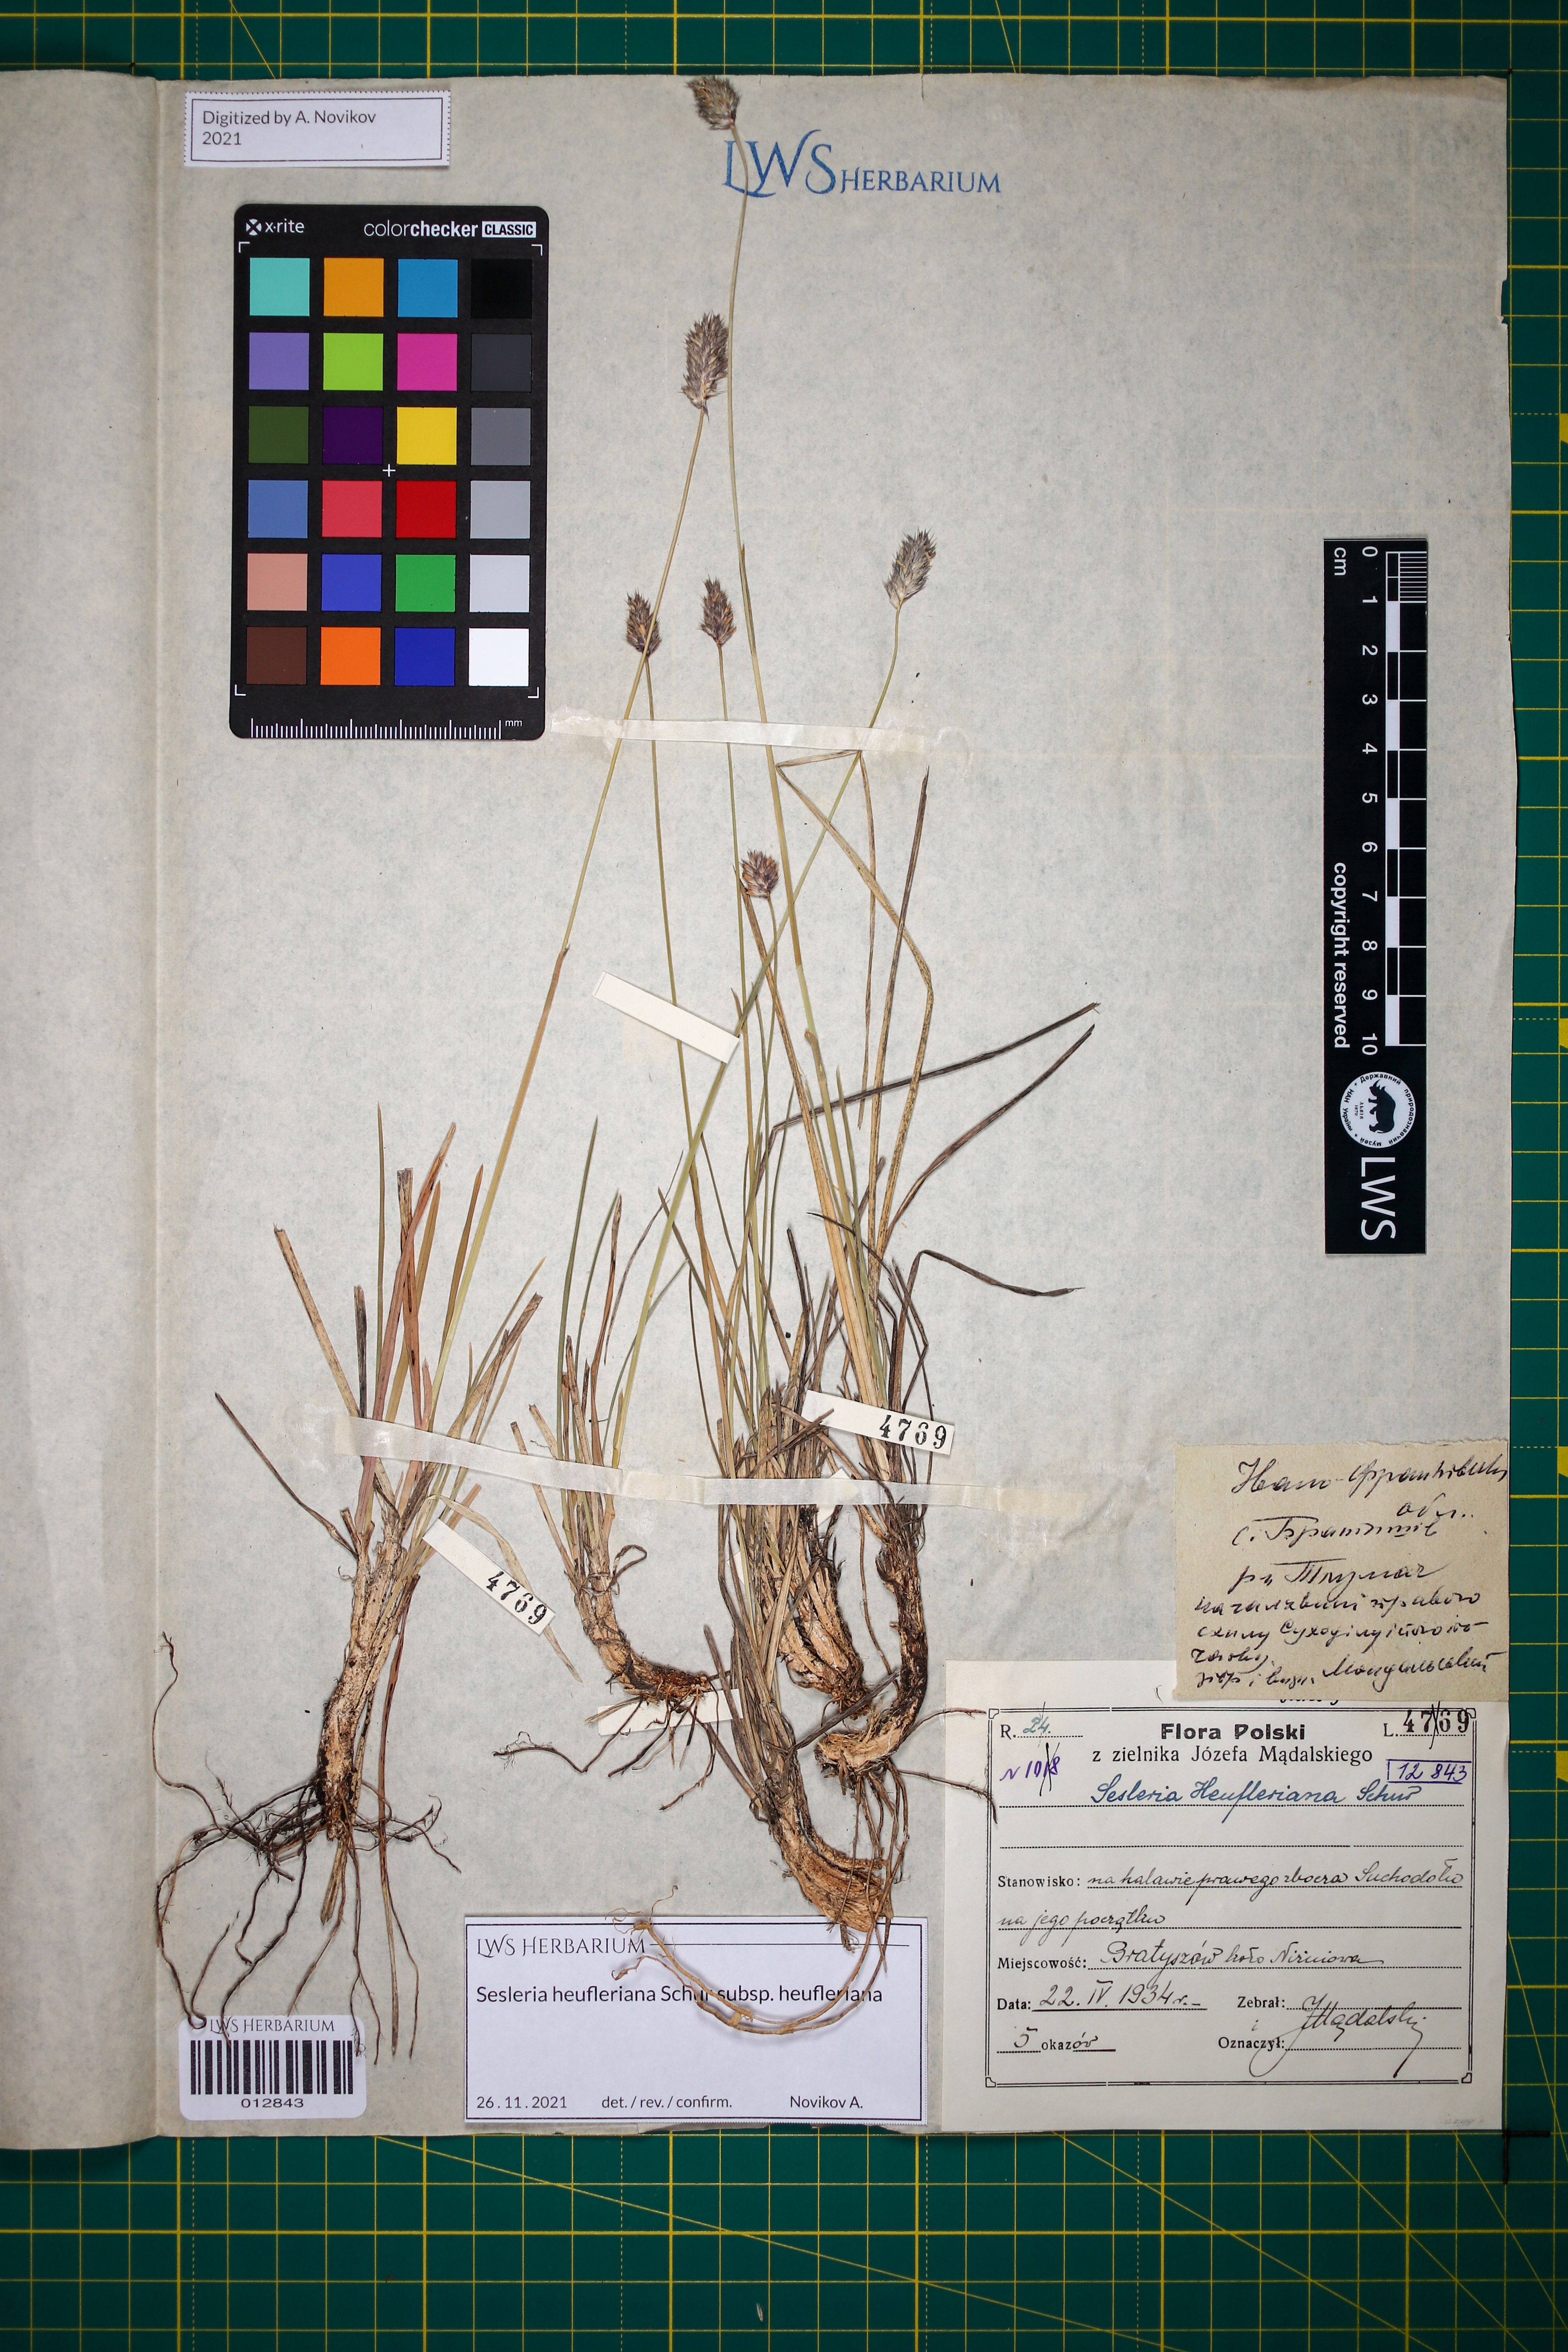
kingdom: Plantae
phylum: Tracheophyta
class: Liliopsida
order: Poales
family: Poaceae
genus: Sesleria
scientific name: Sesleria heufleriana
